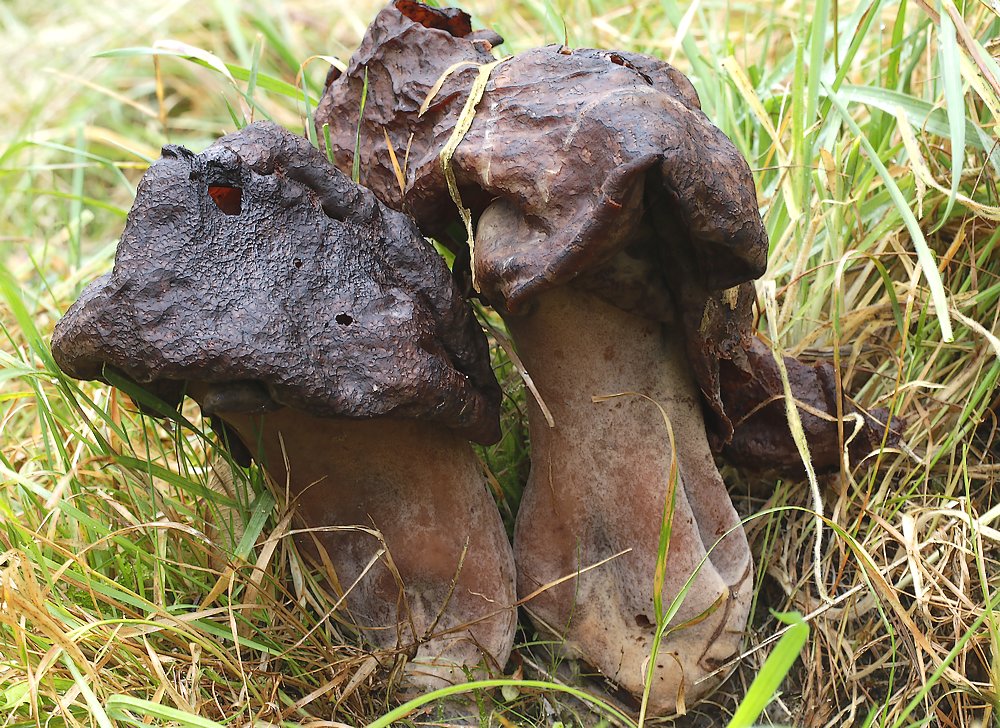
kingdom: Fungi
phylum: Ascomycota
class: Pezizomycetes
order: Pezizales
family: Discinaceae
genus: Gyromitra
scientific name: Gyromitra infula
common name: bispehue-stenmorkel
